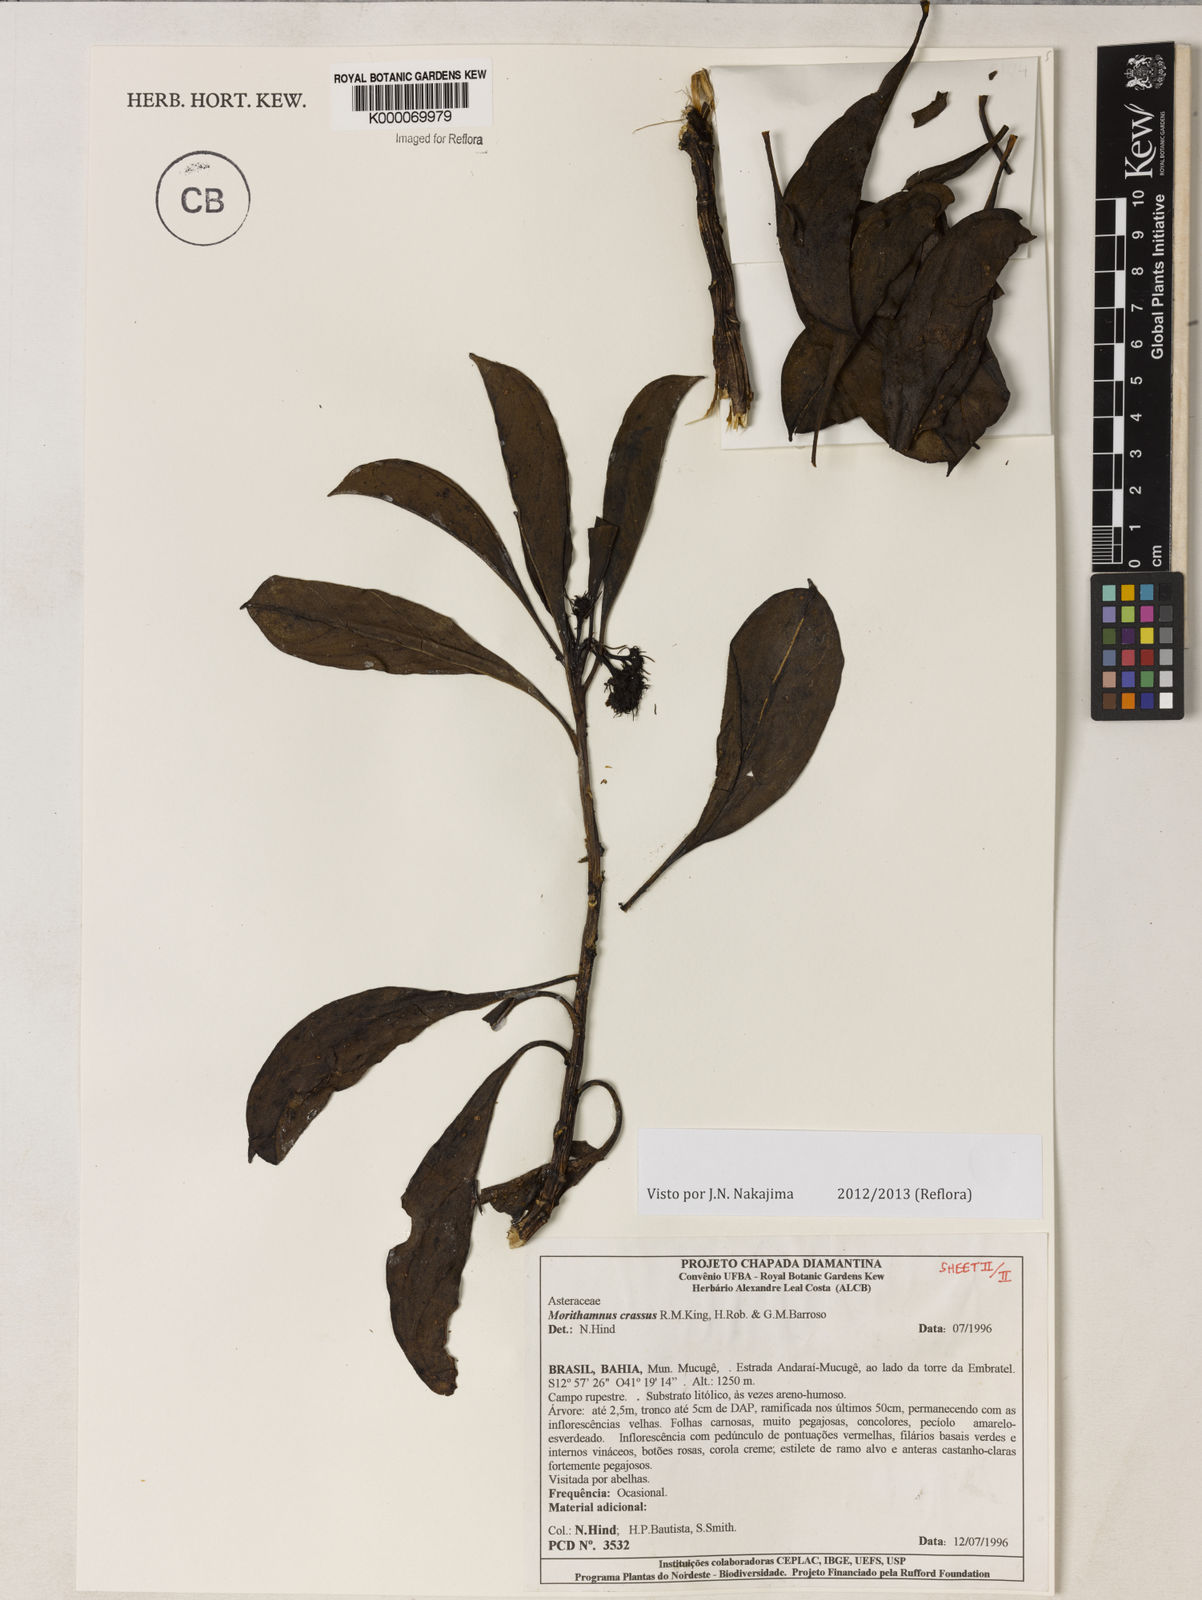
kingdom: Plantae
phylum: Tracheophyta
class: Magnoliopsida
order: Asterales
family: Asteraceae
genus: Morithamnus
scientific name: Morithamnus crassus
